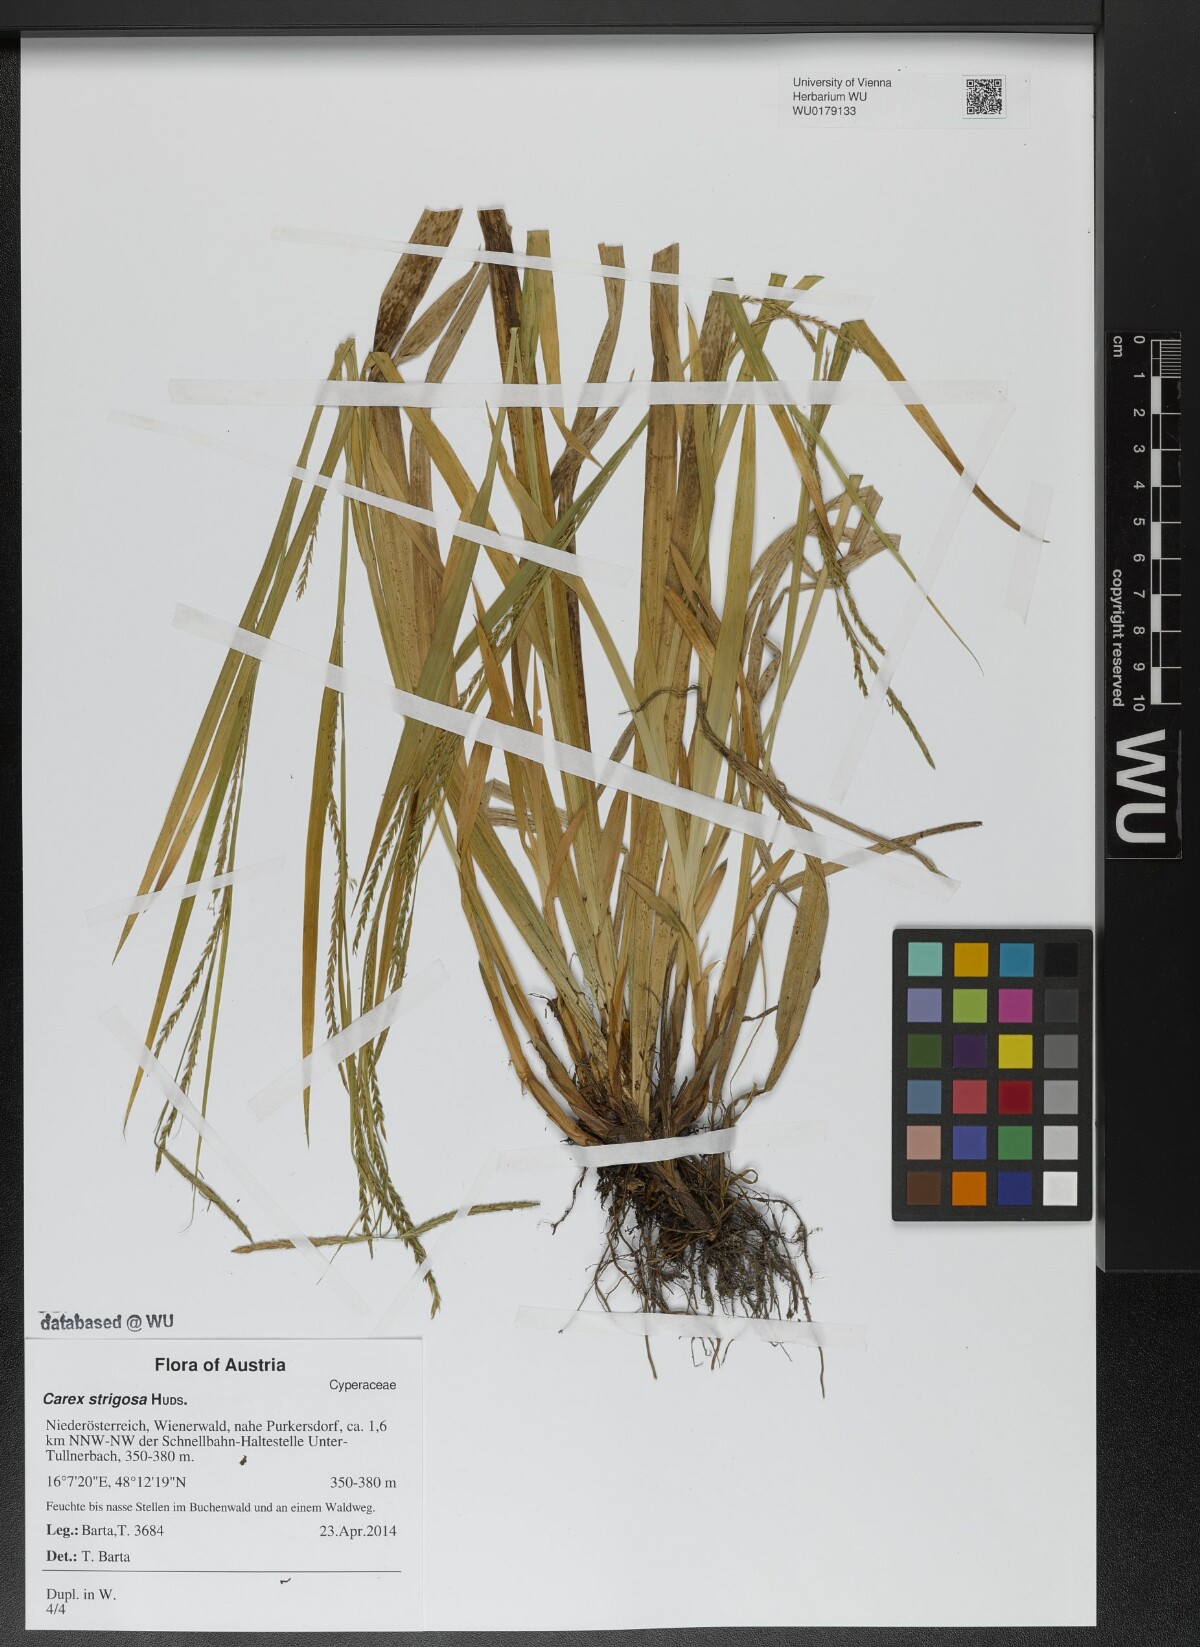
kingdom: Plantae
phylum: Tracheophyta
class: Liliopsida
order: Poales
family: Cyperaceae
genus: Carex
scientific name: Carex strigosa
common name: Thin-spiked wood-sedge
